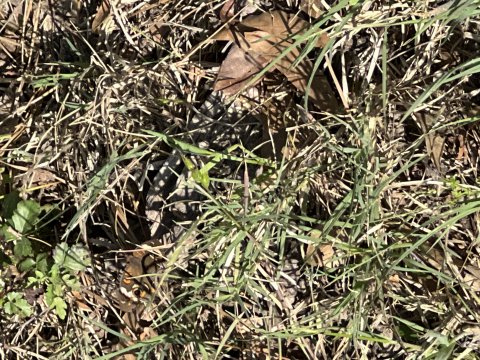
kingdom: Animalia
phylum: Arthropoda
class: Insecta
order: Lepidoptera
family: Nymphalidae
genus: Junonia
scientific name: Junonia coenia
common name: Common Buckeye
